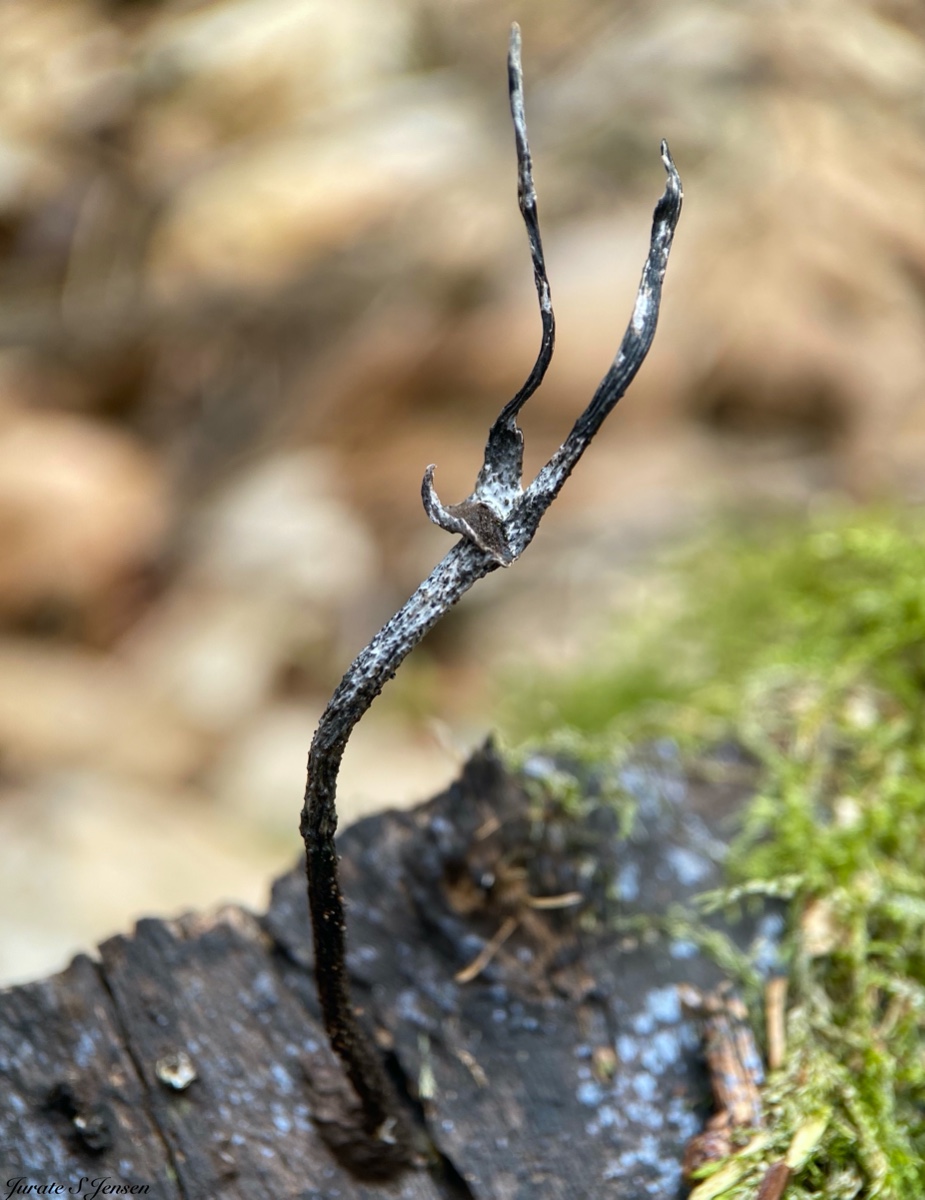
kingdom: Fungi
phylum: Ascomycota
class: Sordariomycetes
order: Xylariales
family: Xylariaceae
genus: Xylaria
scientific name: Xylaria hypoxylon
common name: grenet stødsvamp
